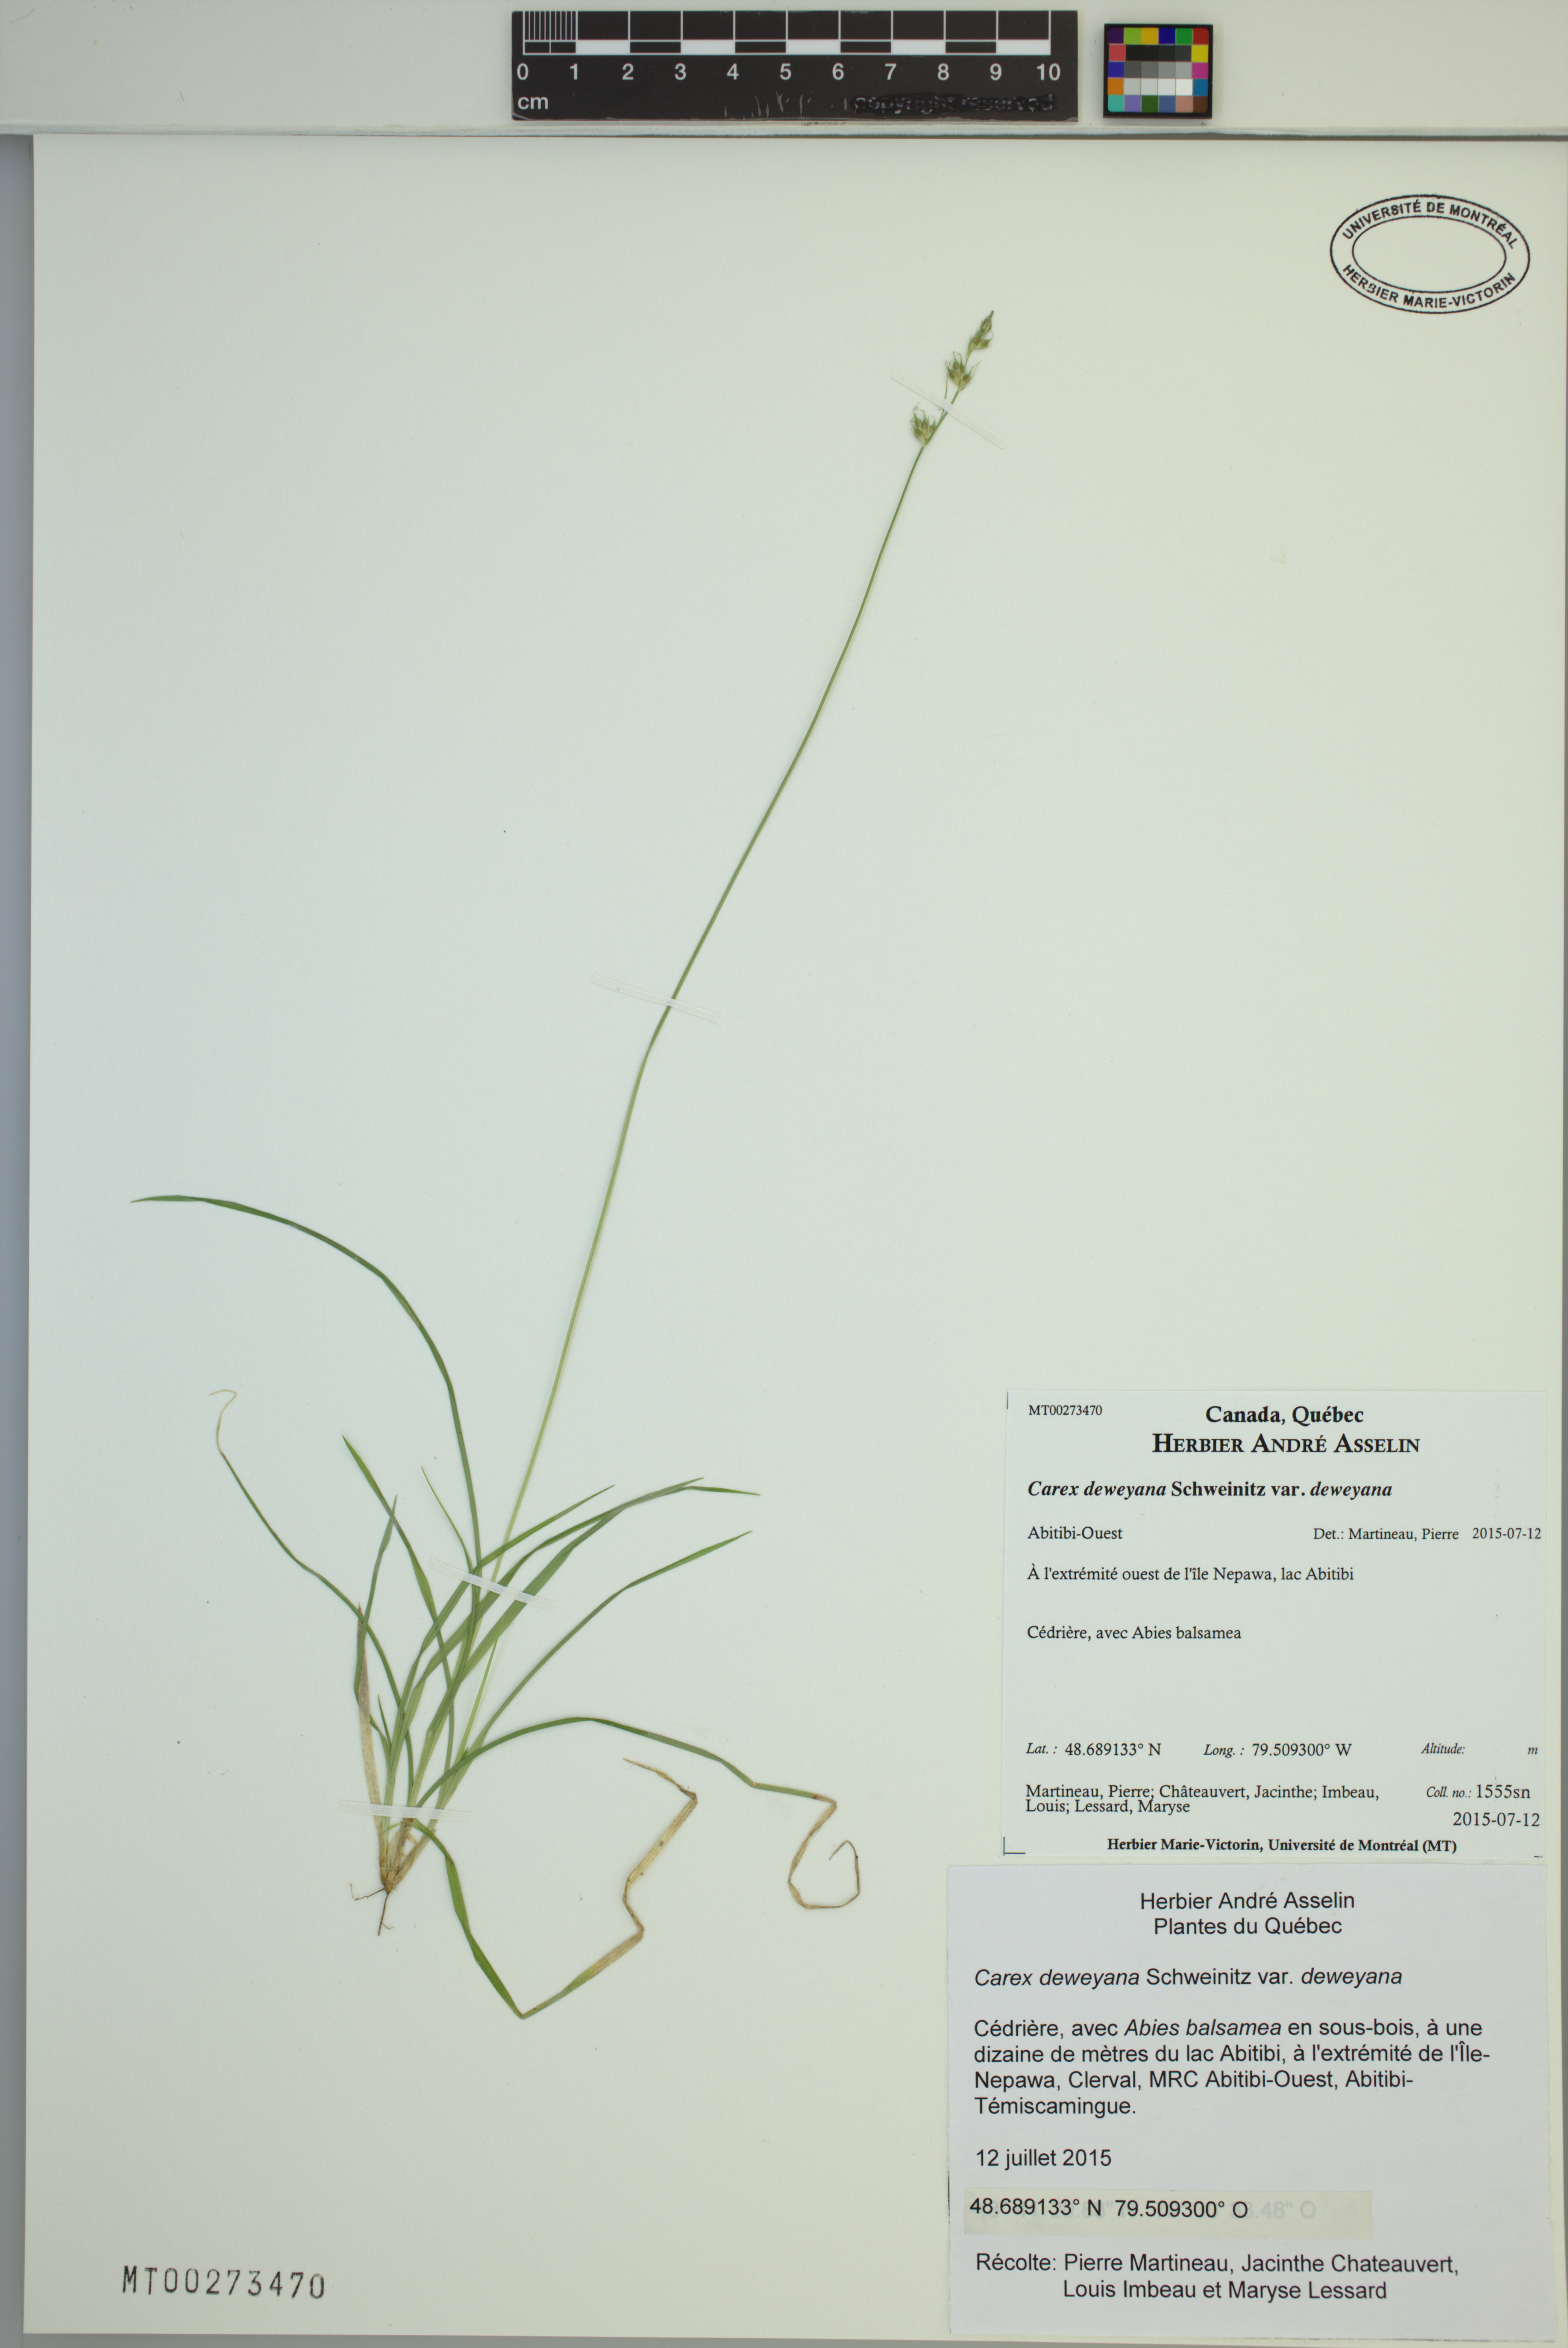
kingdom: Plantae
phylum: Tracheophyta
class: Liliopsida
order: Poales
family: Cyperaceae
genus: Carex
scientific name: Carex deweyana
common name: Dewey's sedge
